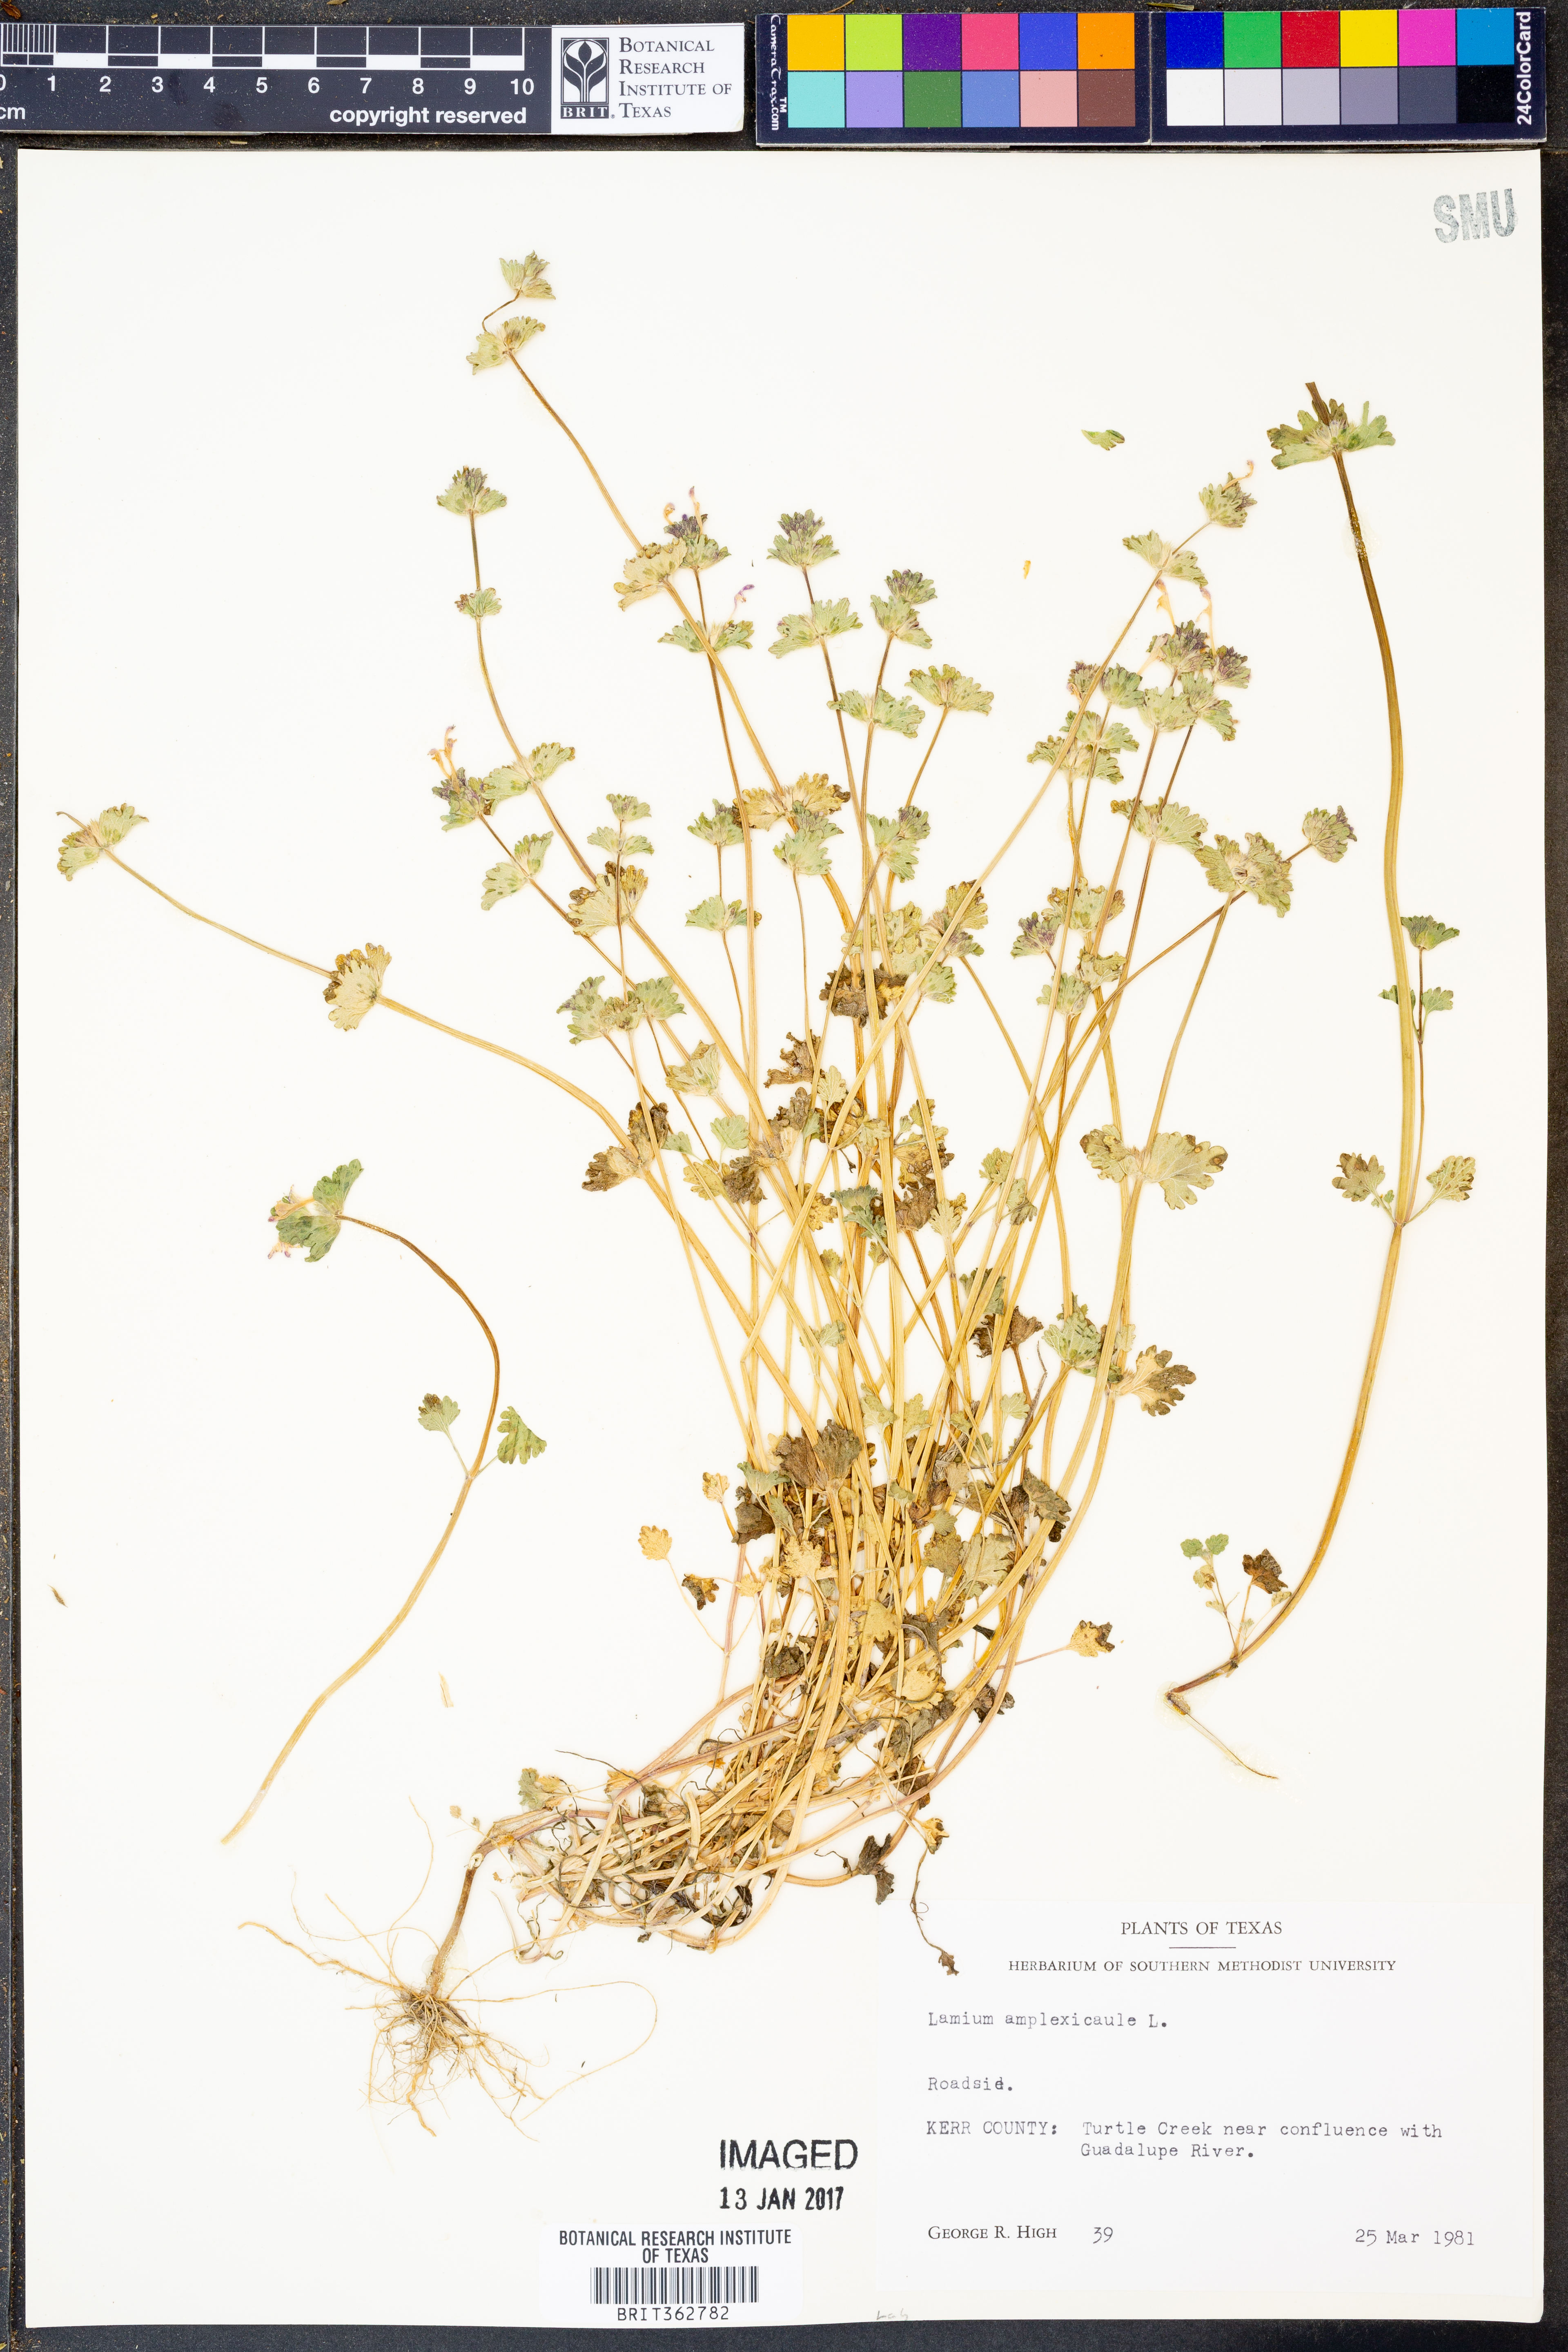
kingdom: Plantae
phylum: Tracheophyta
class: Magnoliopsida
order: Lamiales
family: Lamiaceae
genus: Lamium
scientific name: Lamium amplexicaule
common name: Henbit dead-nettle
